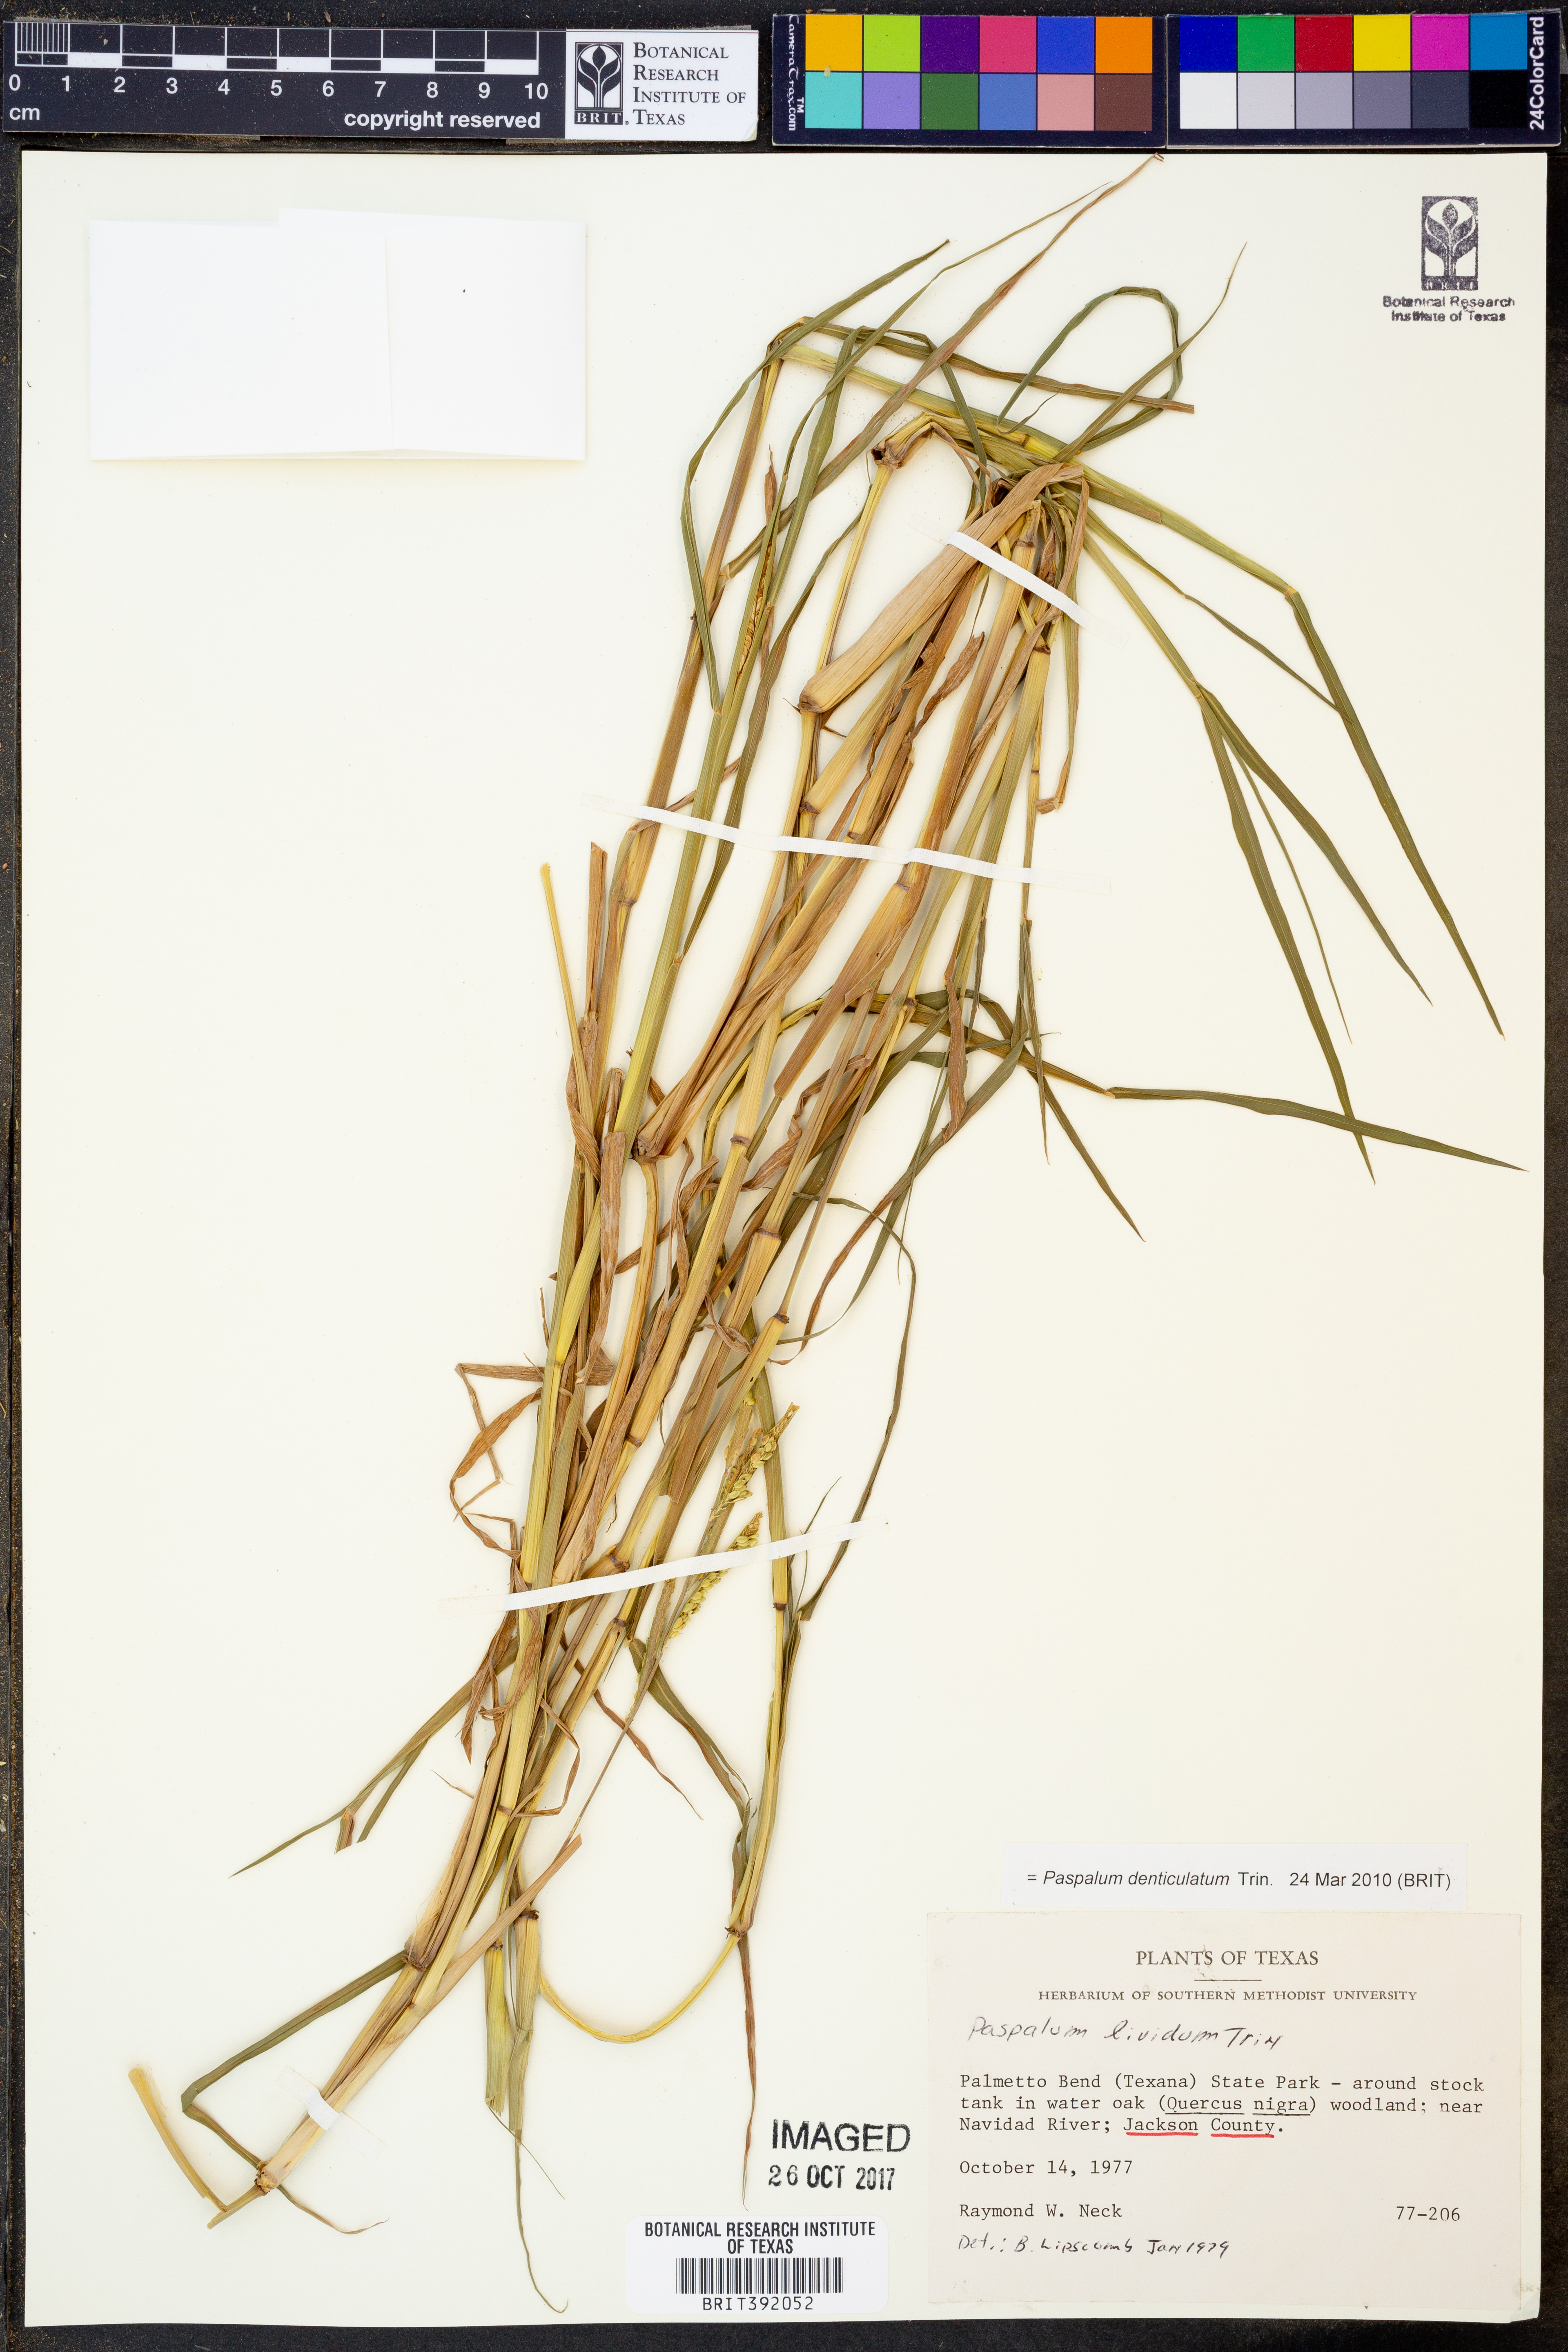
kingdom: Plantae
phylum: Tracheophyta
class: Liliopsida
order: Poales
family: Poaceae
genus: Paspalum
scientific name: Paspalum denticulatum
